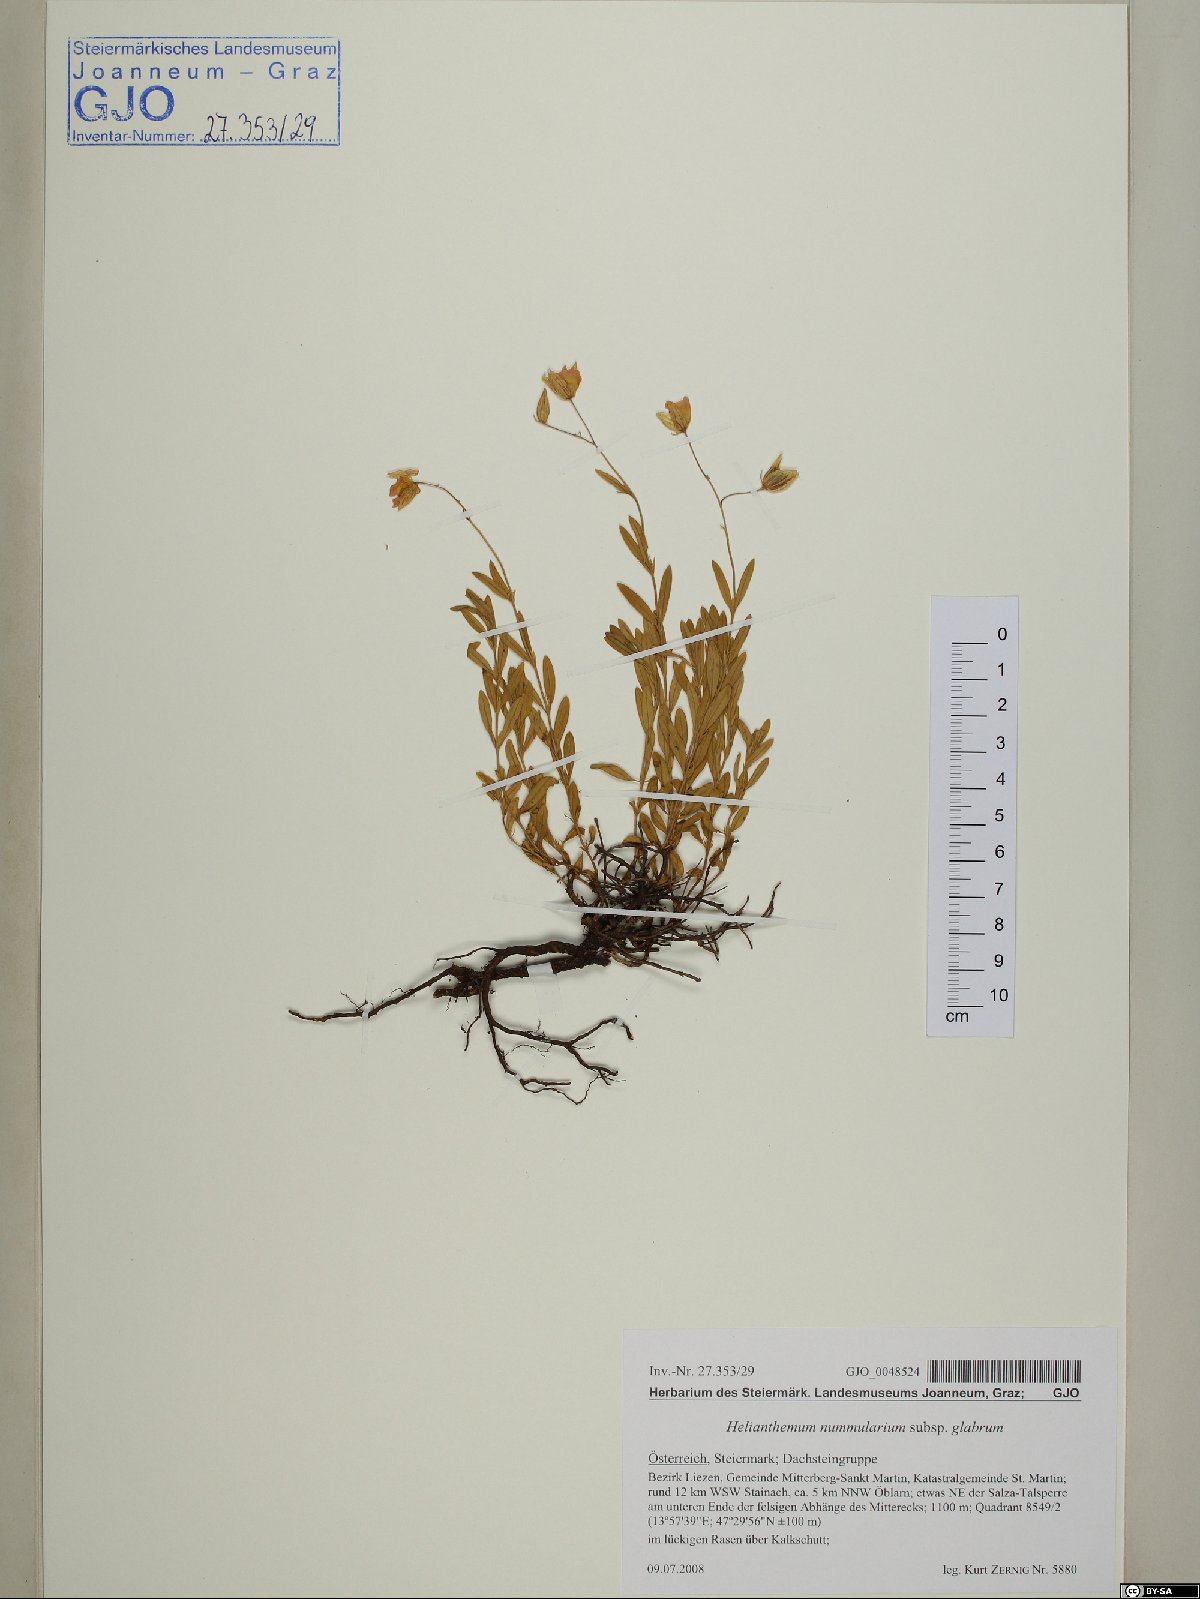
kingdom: Plantae
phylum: Tracheophyta
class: Magnoliopsida
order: Malvales
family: Cistaceae
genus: Helianthemum
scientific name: Helianthemum nummularium
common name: Common rock-rose
